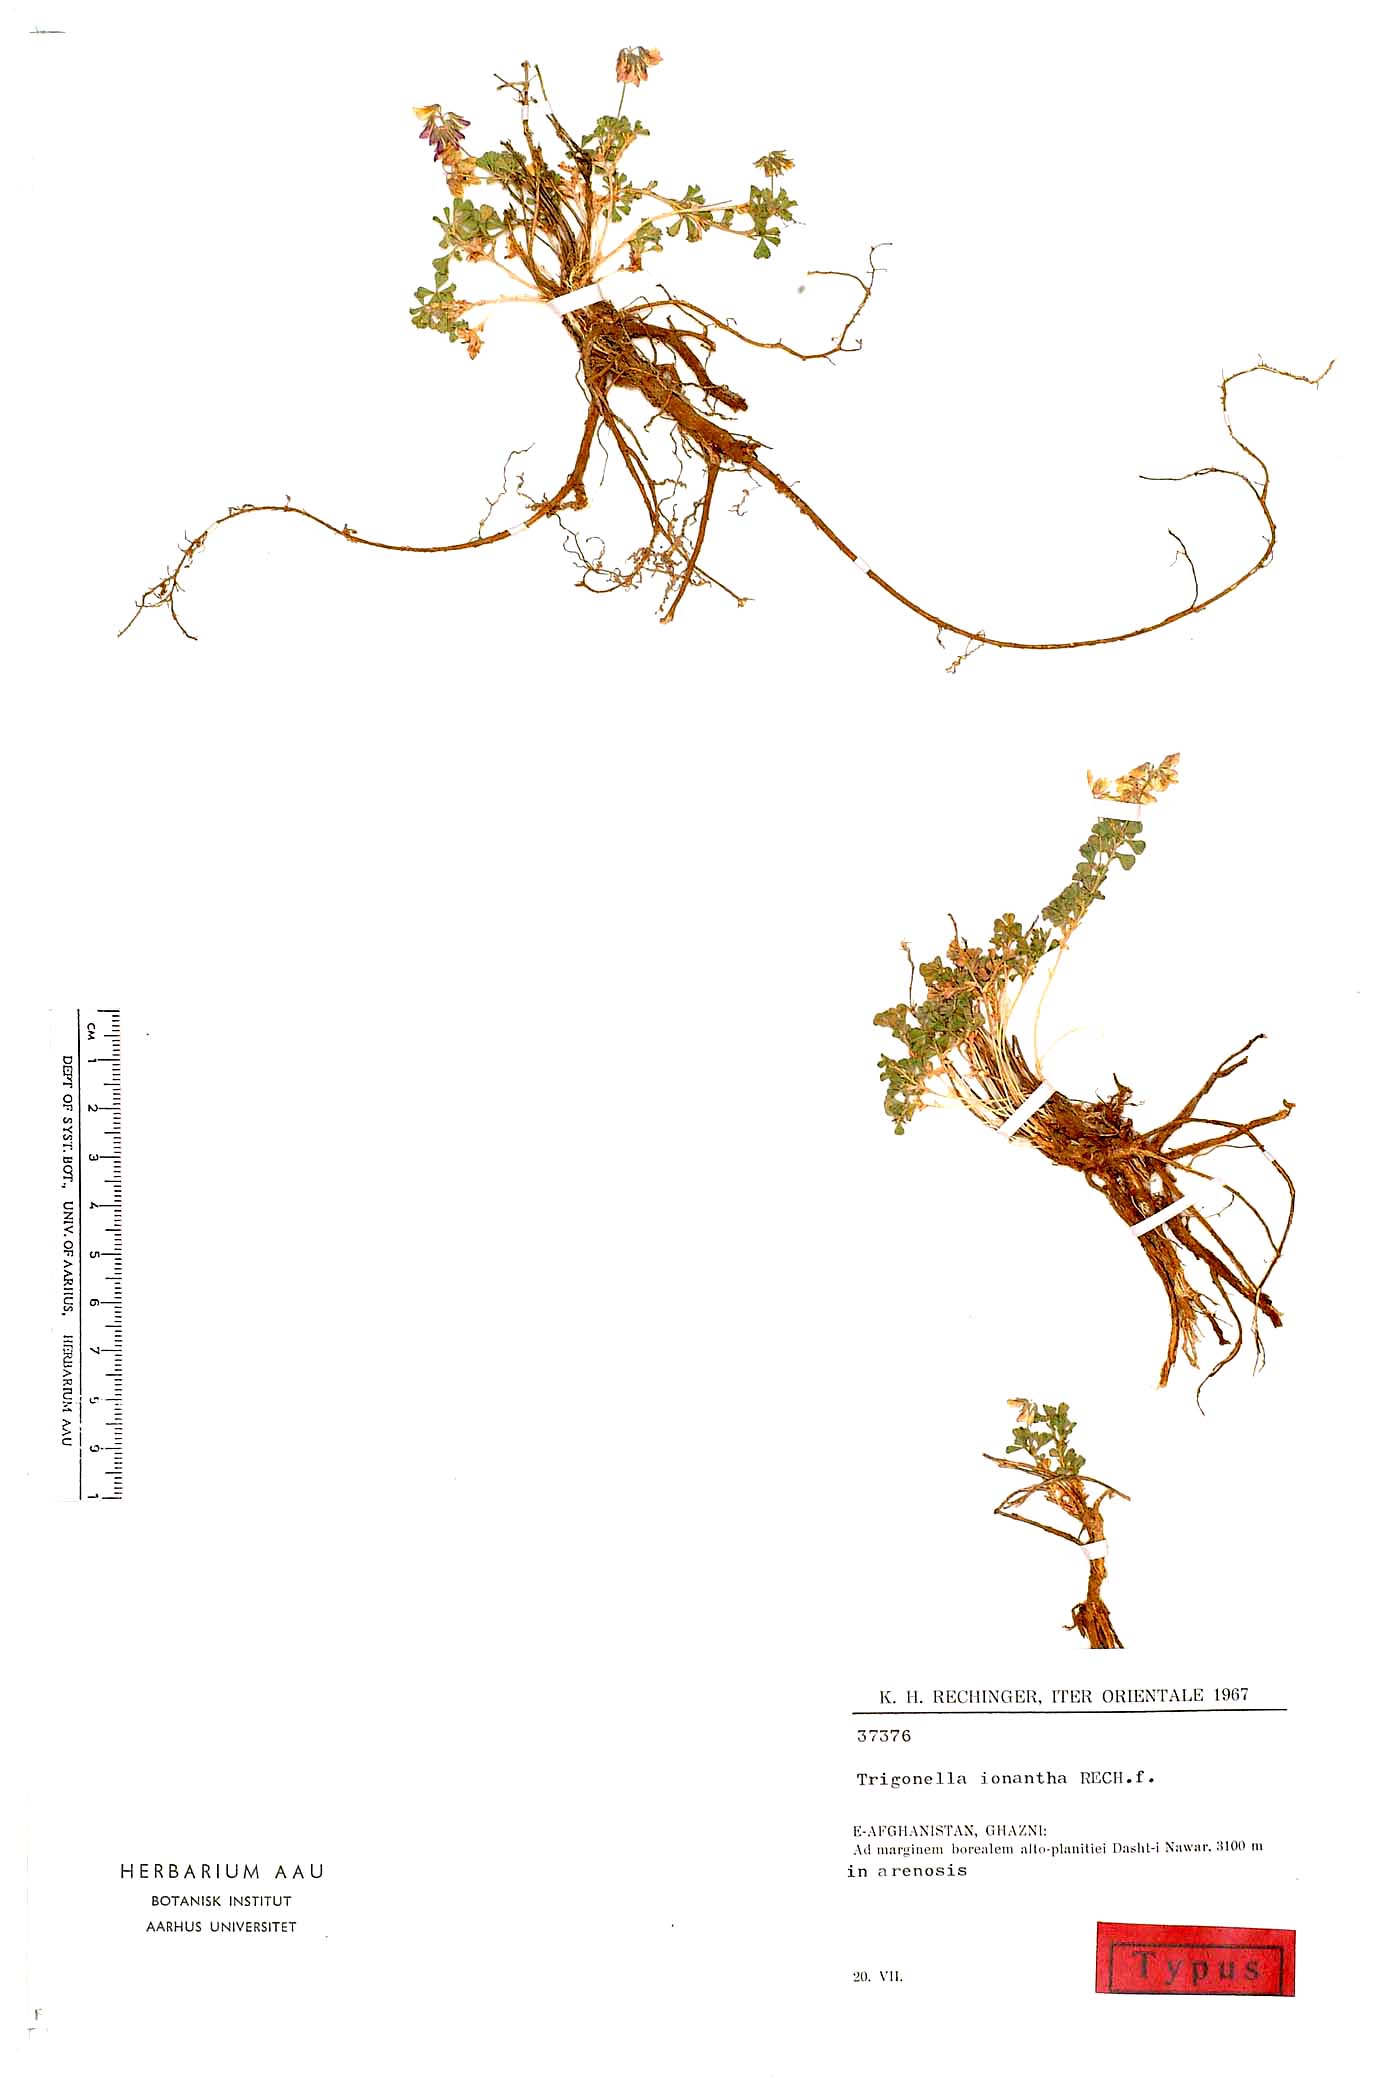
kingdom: Plantae
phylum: Tracheophyta
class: Magnoliopsida
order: Fabales
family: Fabaceae
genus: Trigonella
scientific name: Trigonella ionantha
